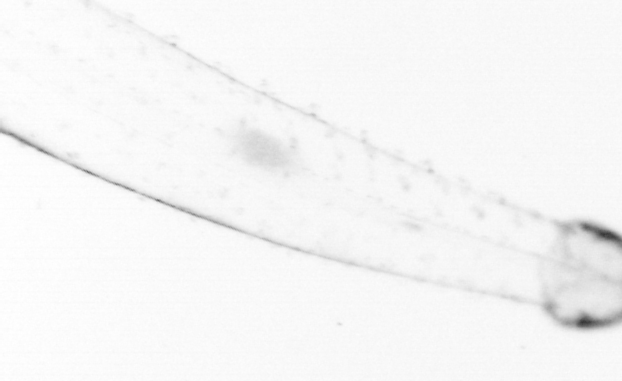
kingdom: Animalia
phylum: Chaetognatha
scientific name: Chaetognatha
